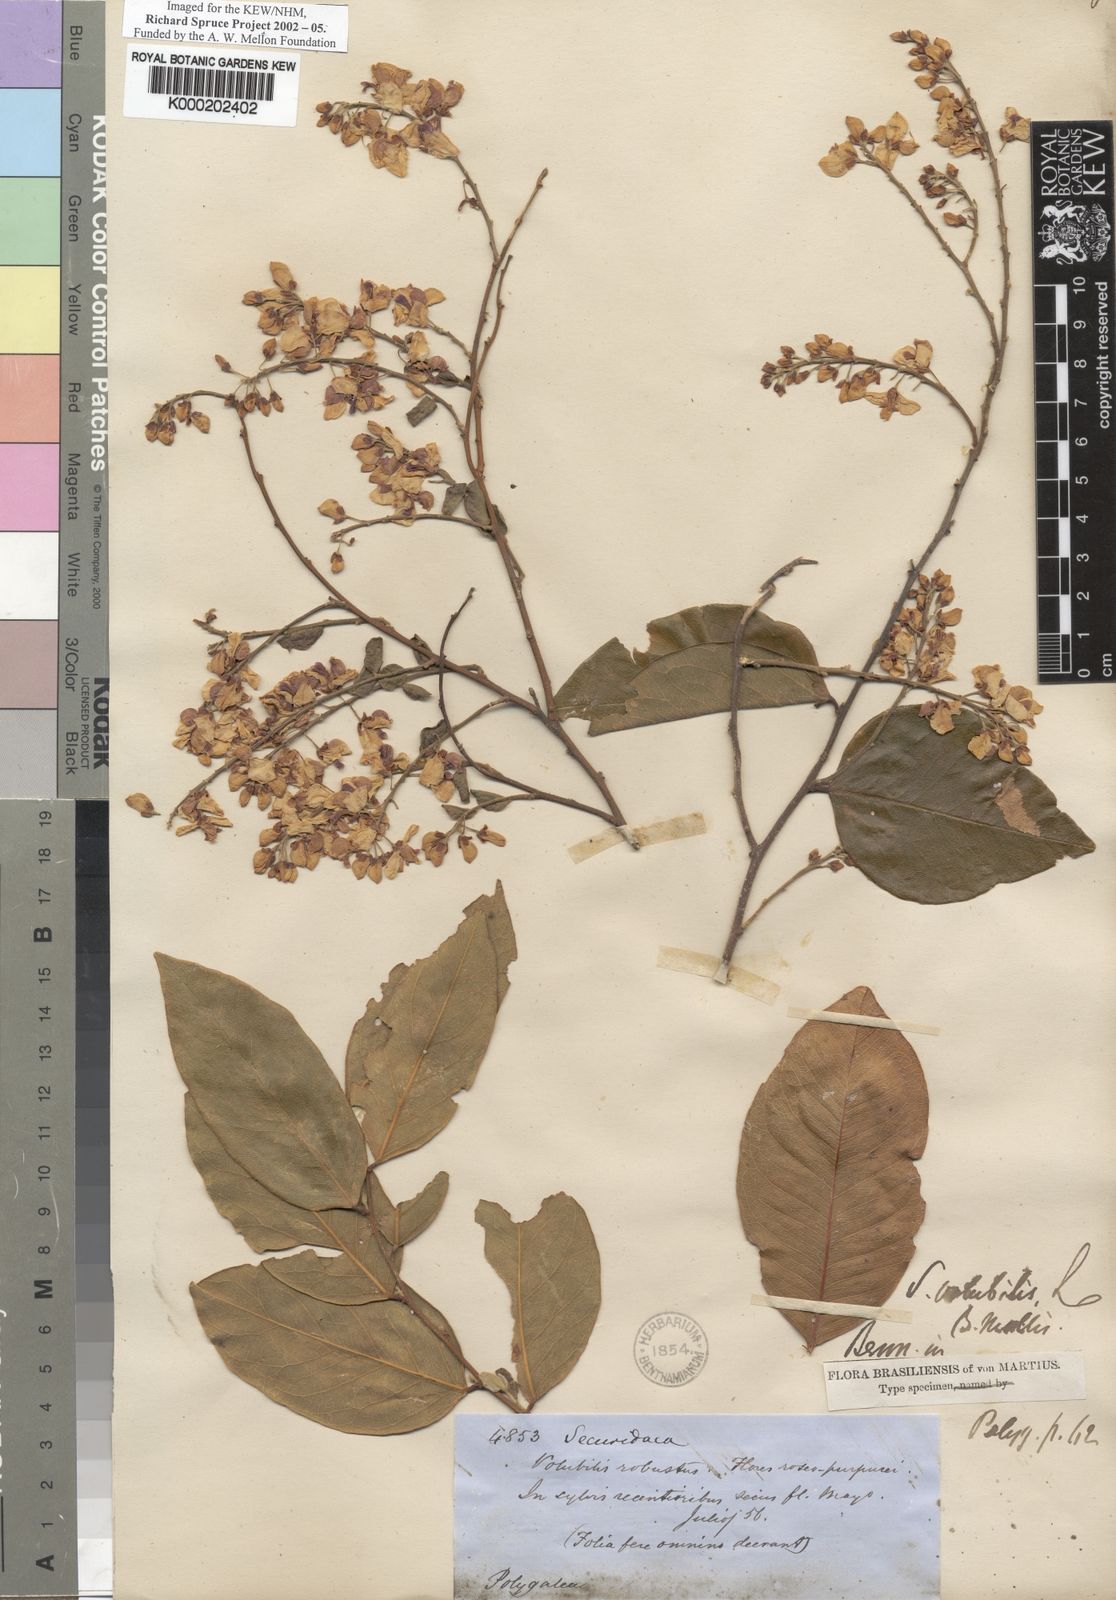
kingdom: Plantae
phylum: Tracheophyta
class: Magnoliopsida
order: Fabales
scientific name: Fabales
